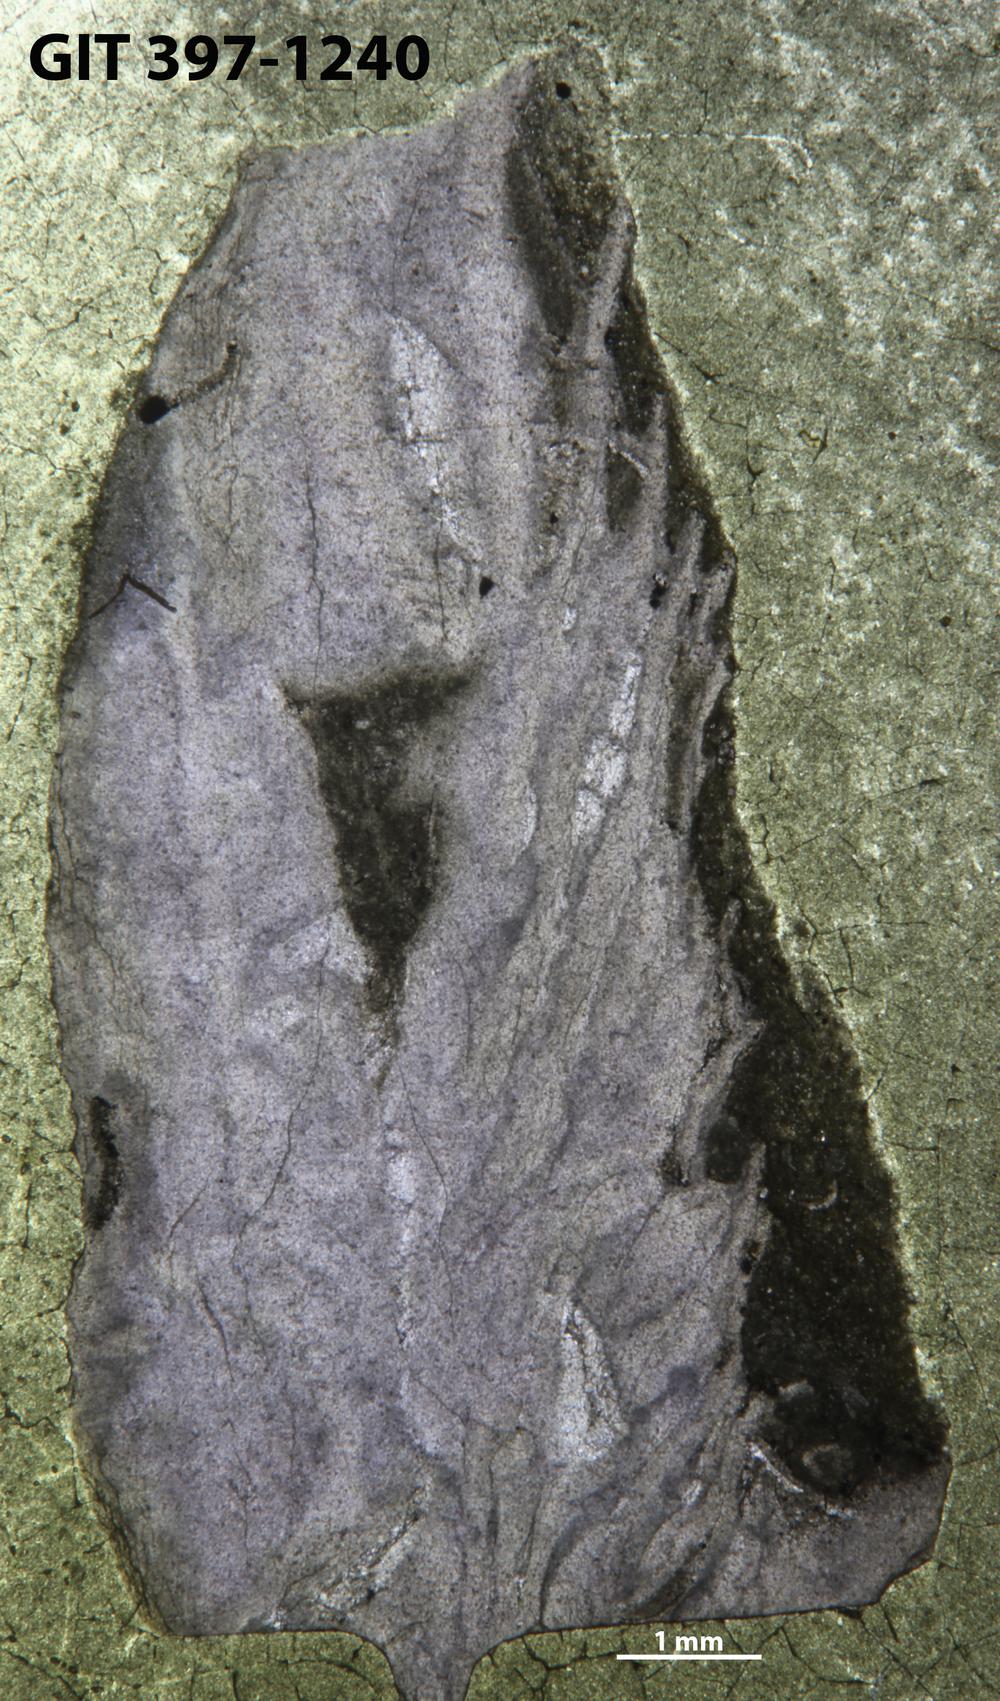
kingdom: Animalia
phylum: Cnidaria
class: Anthozoa
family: Lykophyllidae
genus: Pycnactis
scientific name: Pycnactis
